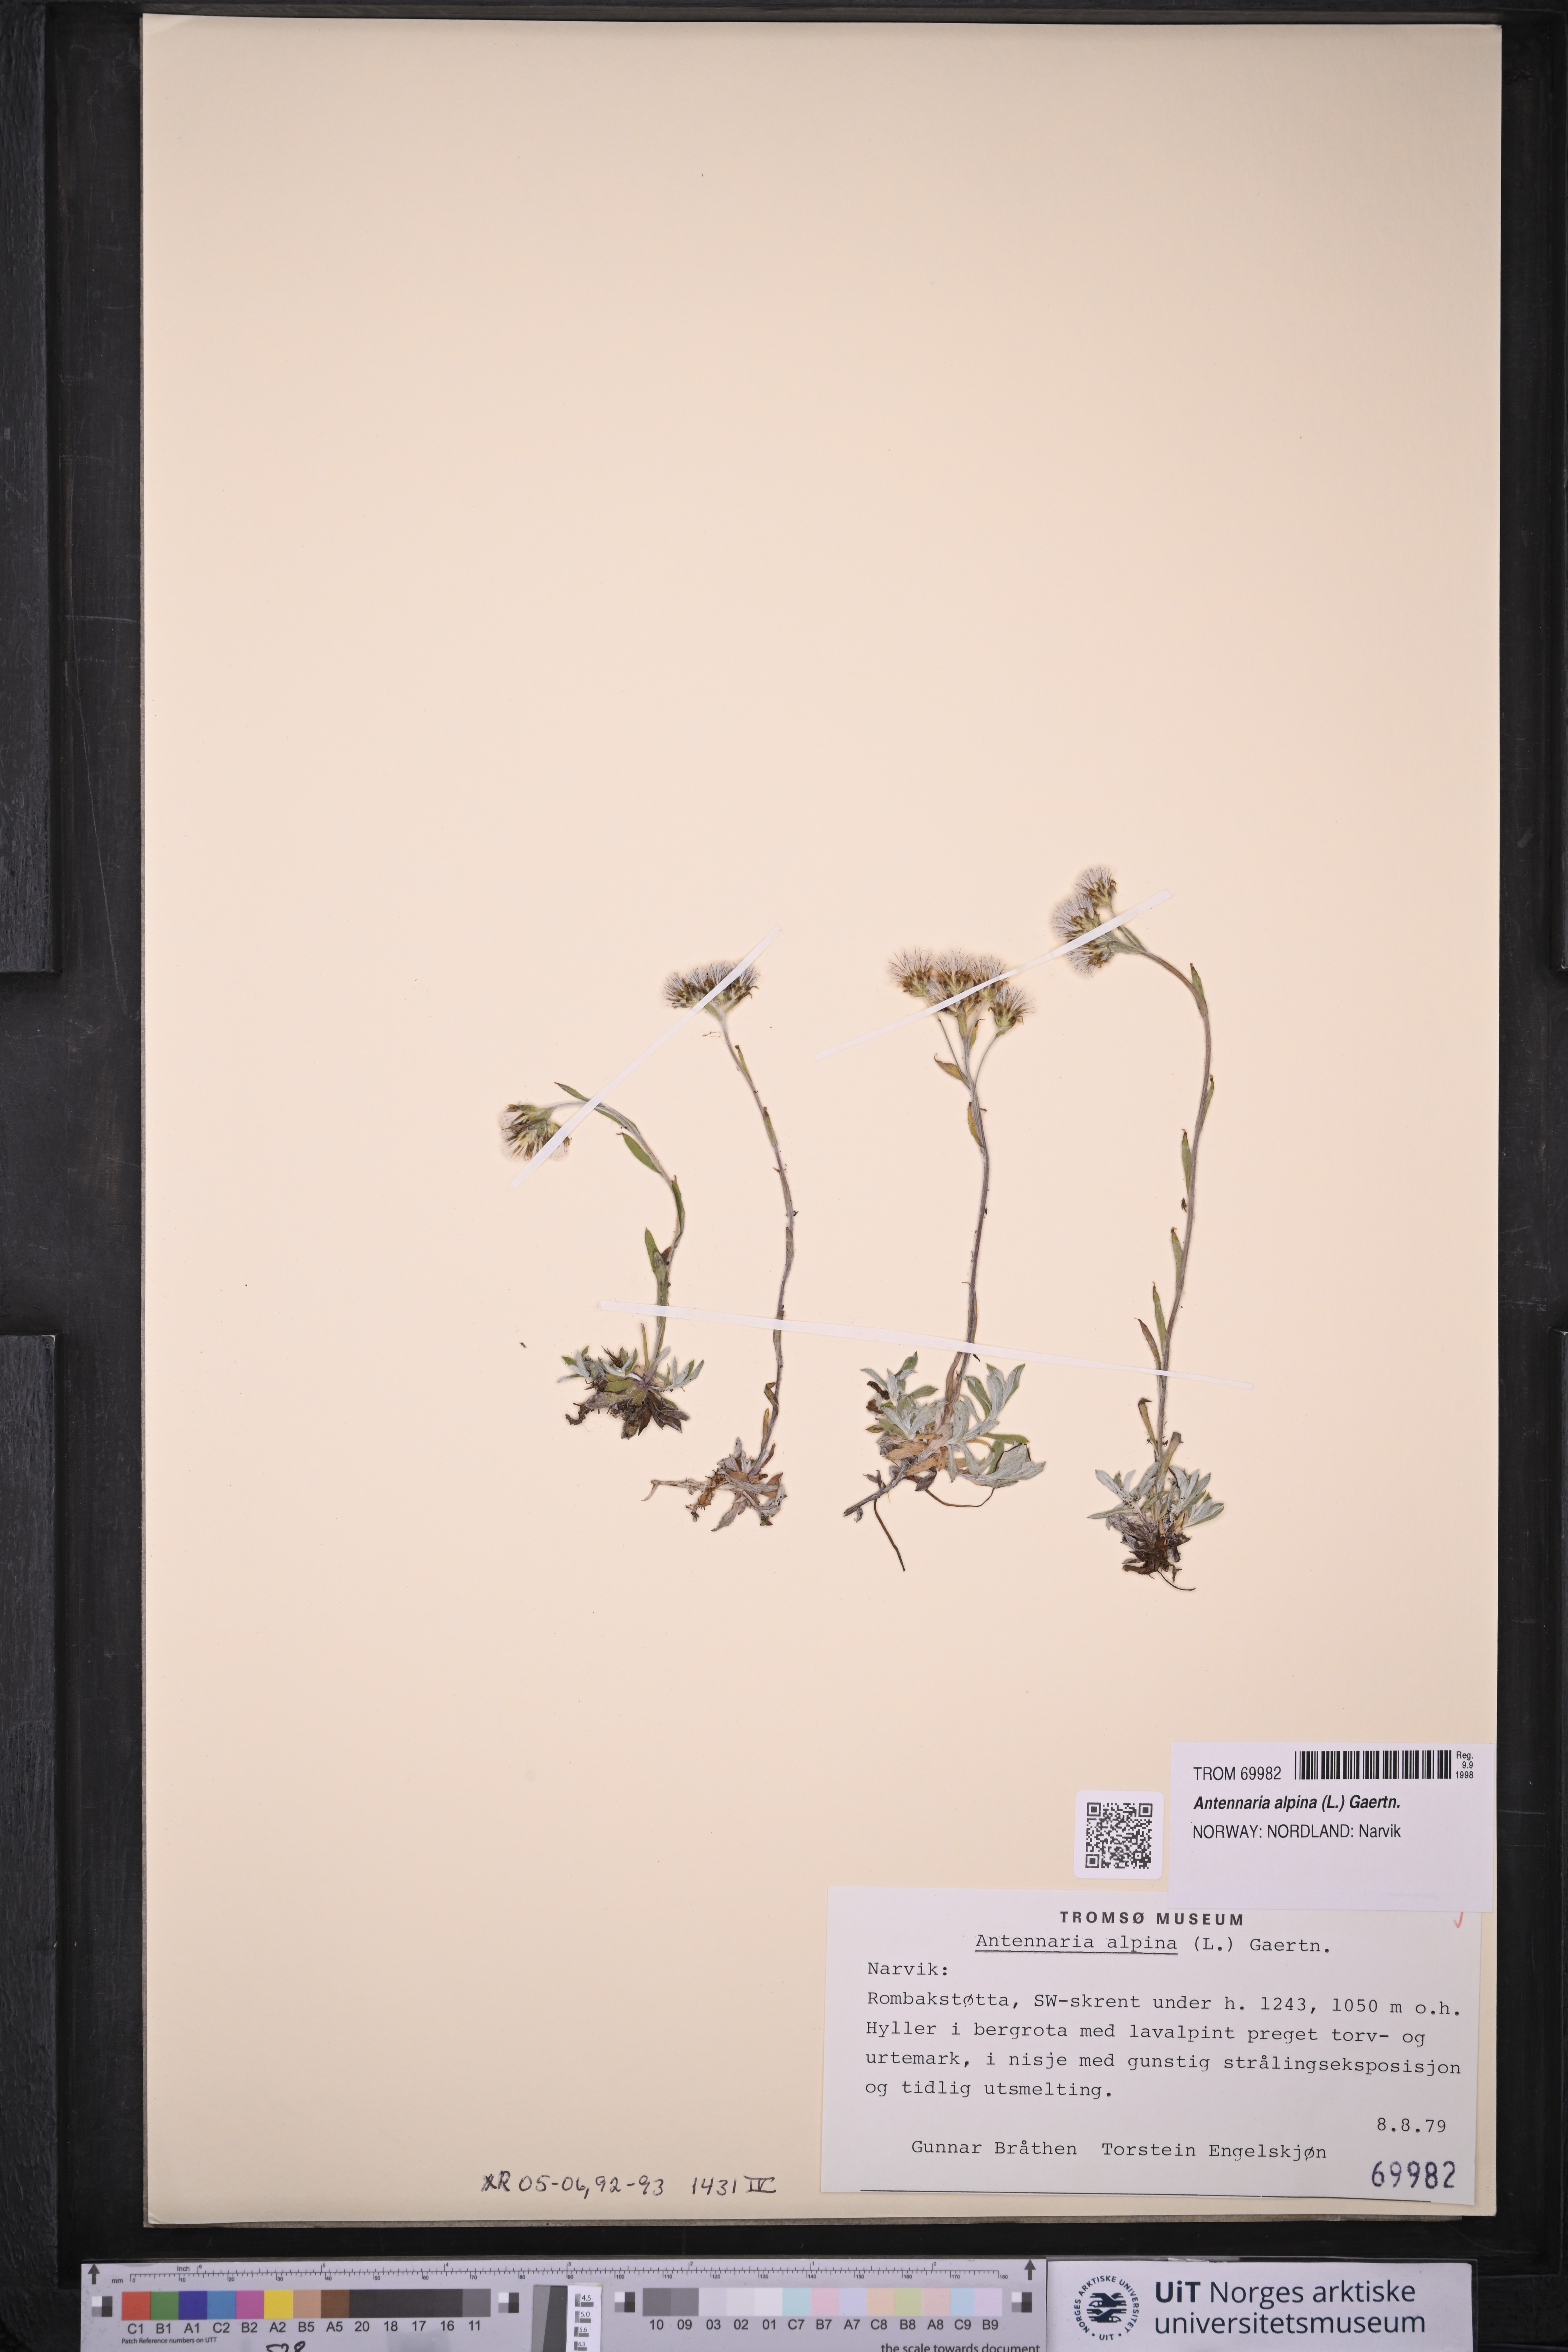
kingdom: Plantae
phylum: Tracheophyta
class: Magnoliopsida
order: Asterales
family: Asteraceae
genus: Antennaria
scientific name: Antennaria alpina
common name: Alpine pussytoes
